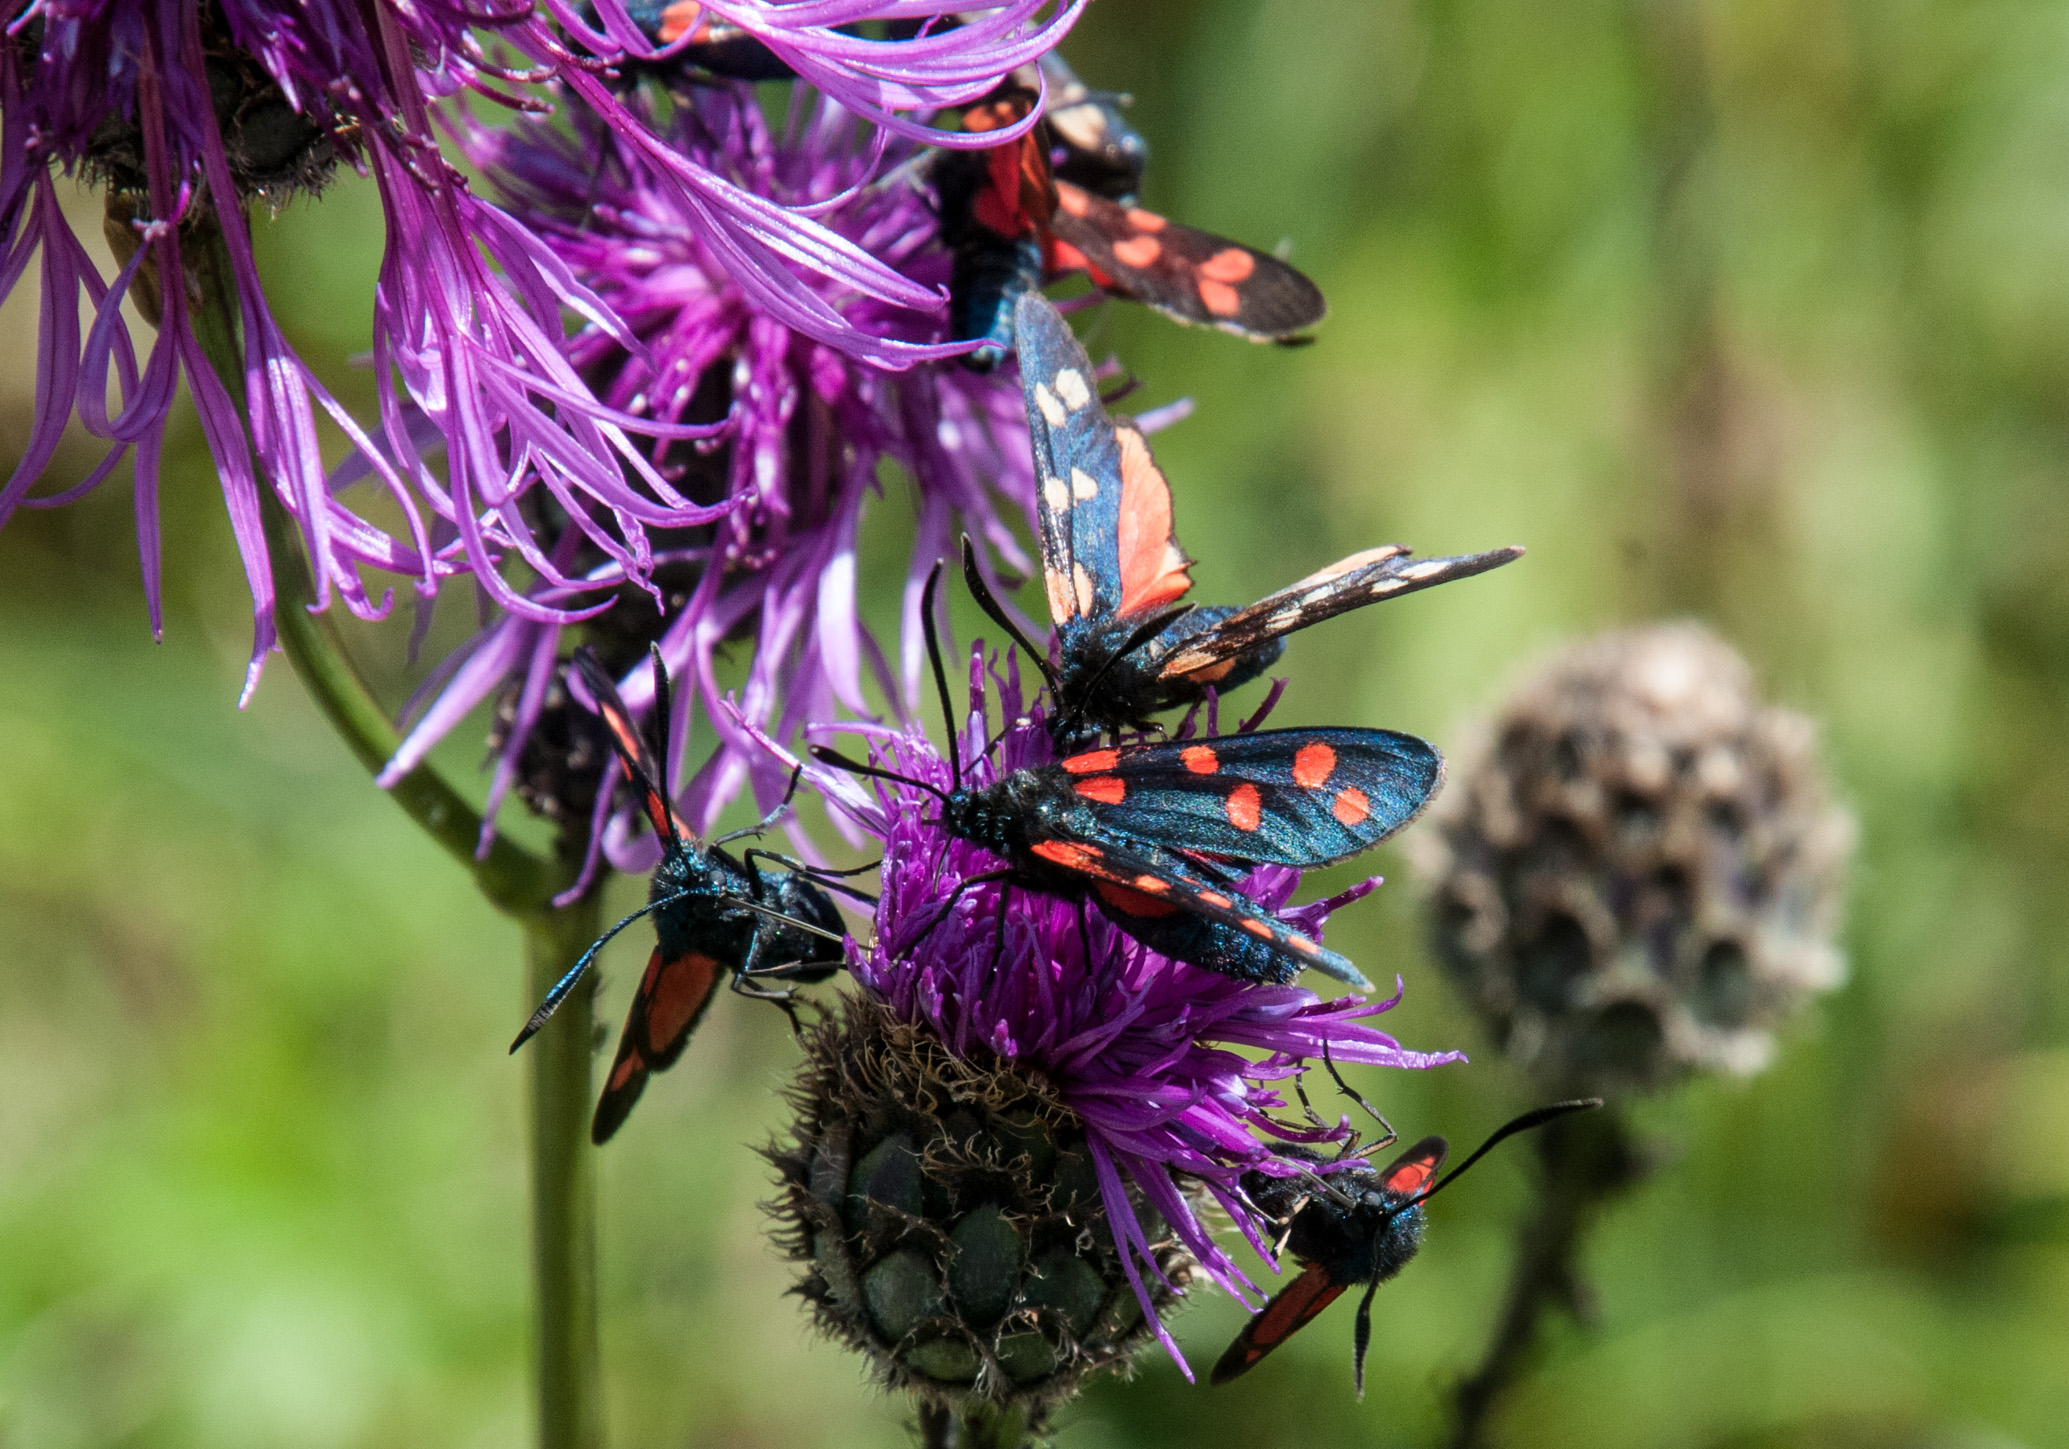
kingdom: Animalia
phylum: Arthropoda
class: Insecta
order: Lepidoptera
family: Zygaenidae
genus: Zygaena
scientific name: Zygaena transalpina
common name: Southern six spot burnet
